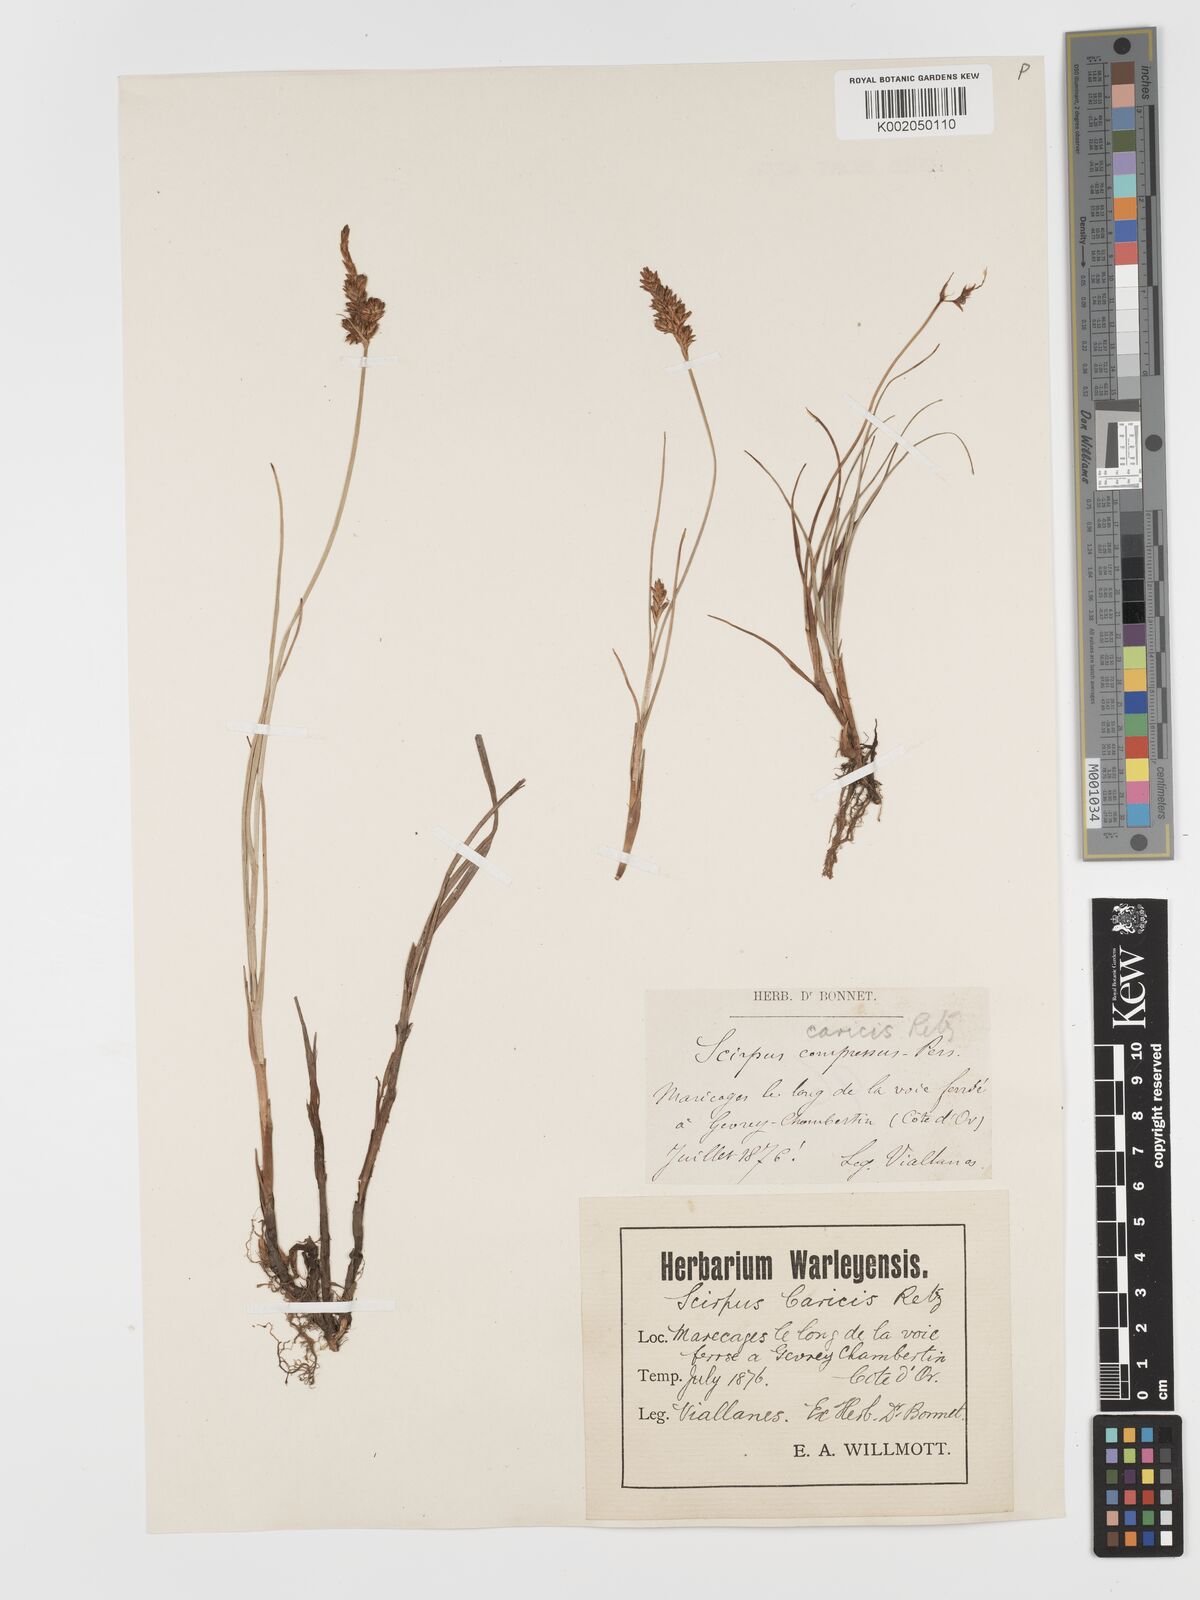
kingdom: Plantae
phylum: Tracheophyta
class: Liliopsida
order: Poales
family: Cyperaceae
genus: Blysmus
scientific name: Blysmus compressus
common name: Flat-sedge
